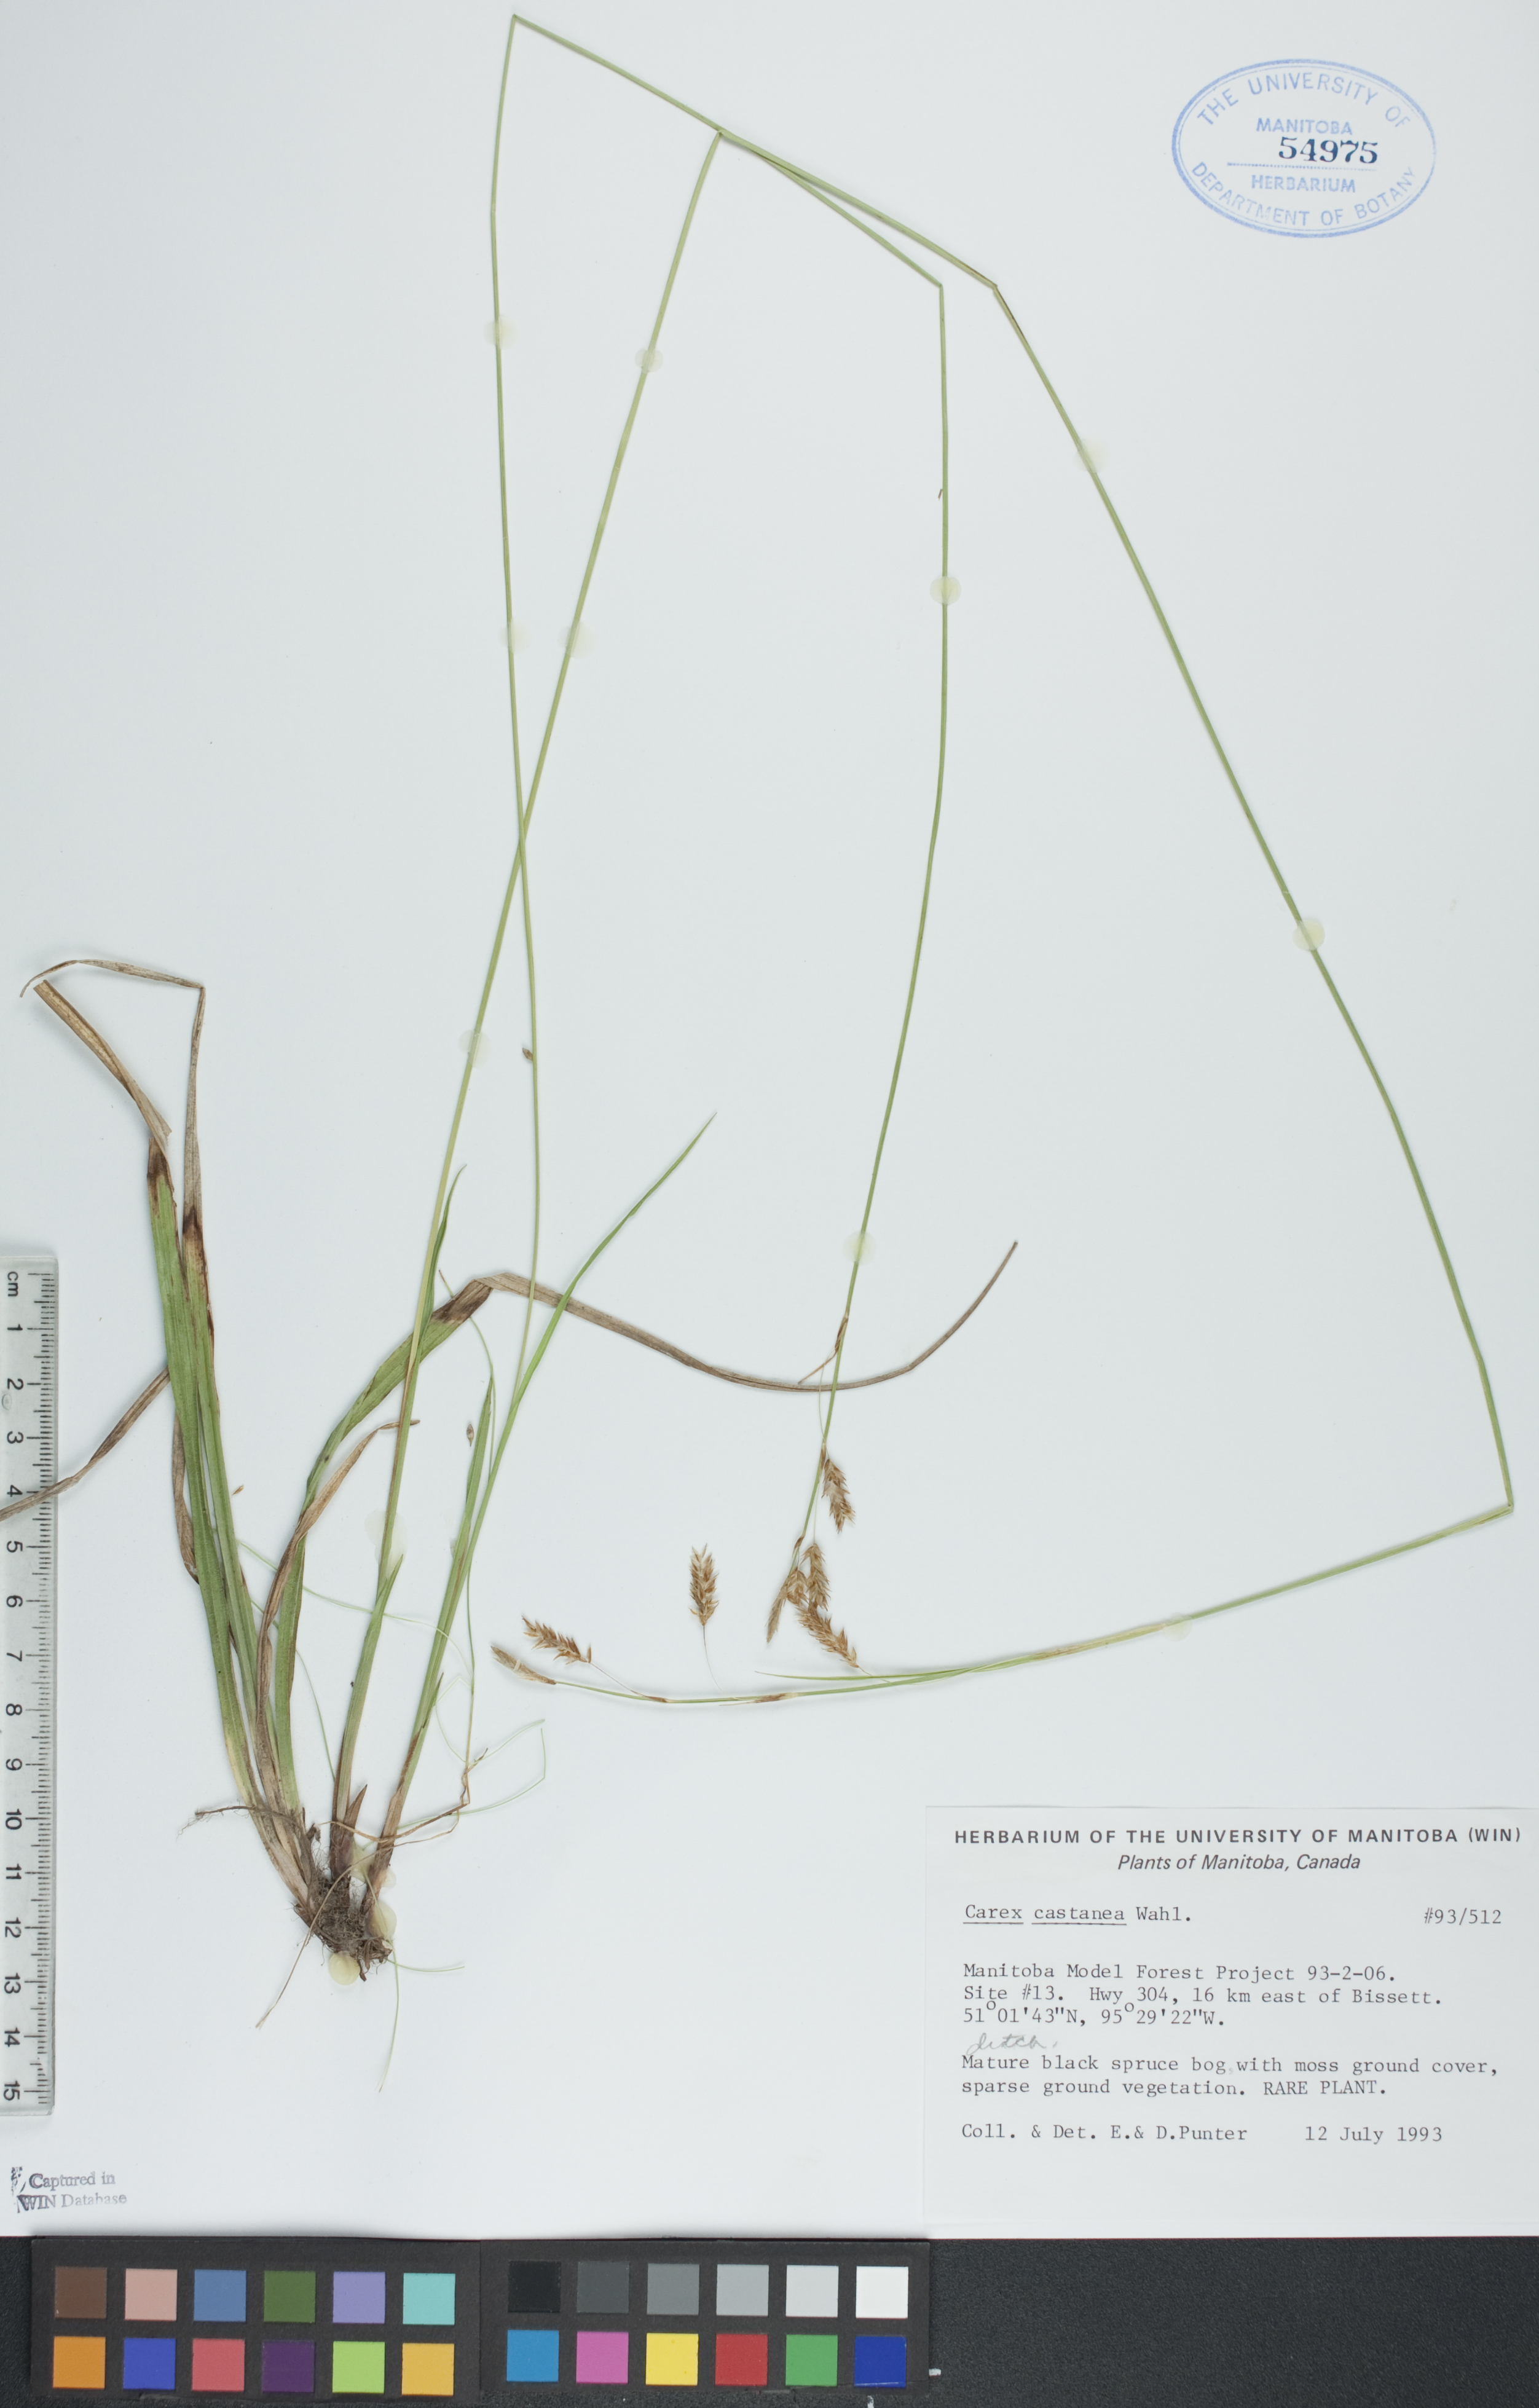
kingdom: Plantae
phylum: Tracheophyta
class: Liliopsida
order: Poales
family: Cyperaceae
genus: Carex
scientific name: Carex castanea
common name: Chestnut sedge
